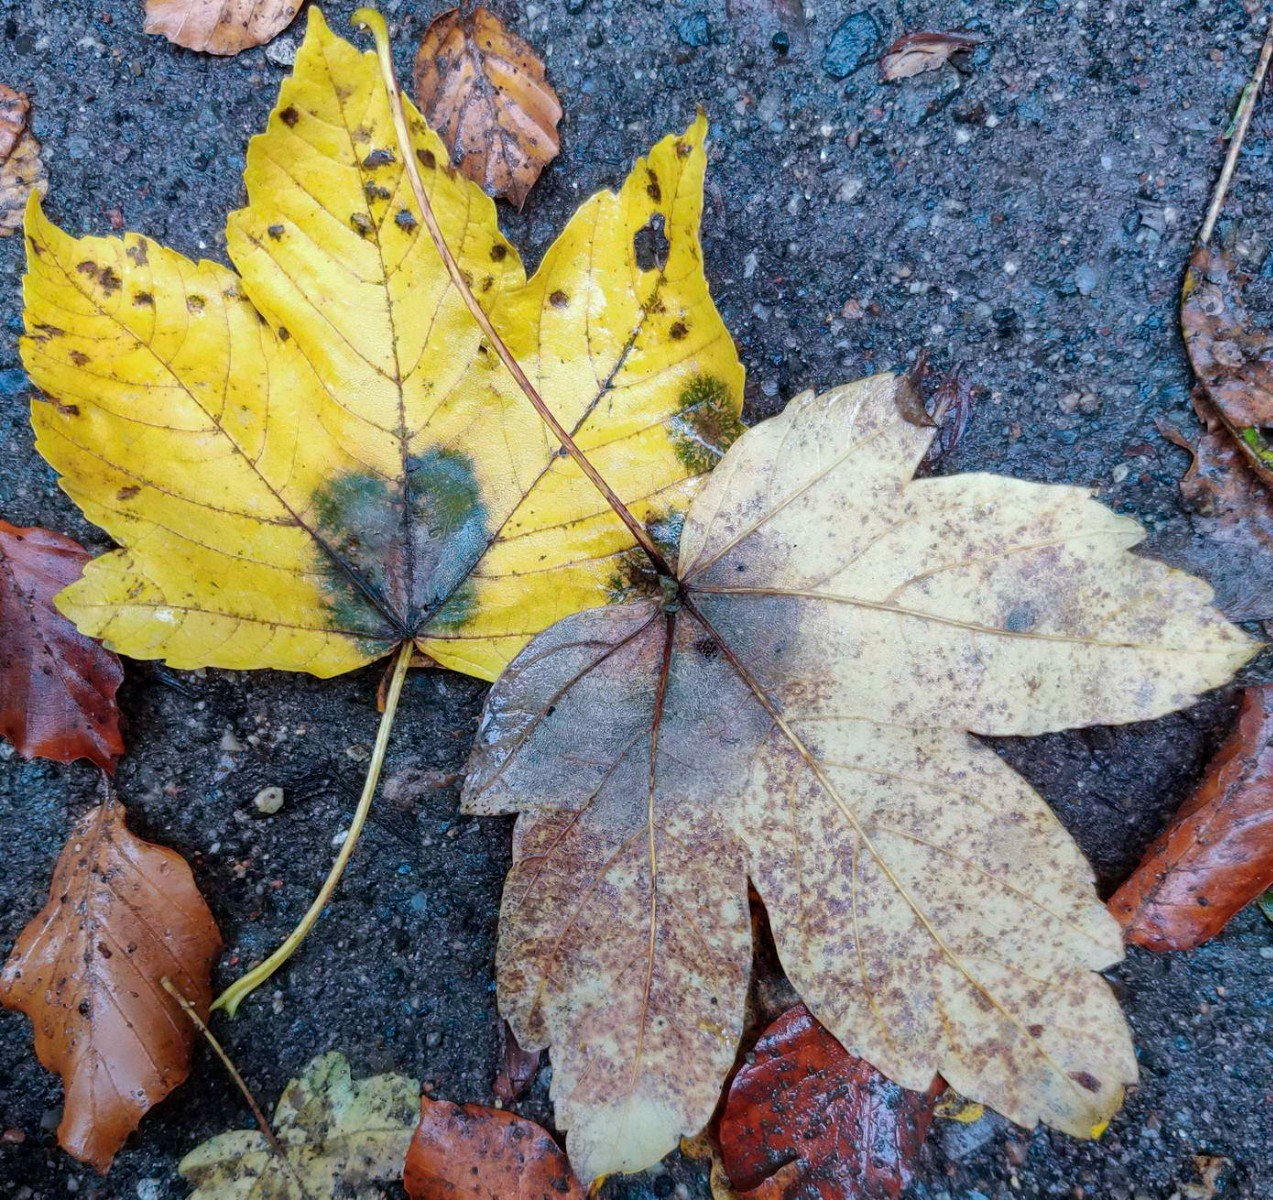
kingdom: Fungi
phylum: Ascomycota
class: Sordariomycetes
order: Diaporthales
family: Gnomoniaceae
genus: Pleuroceras
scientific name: Pleuroceras pseudoplatani
